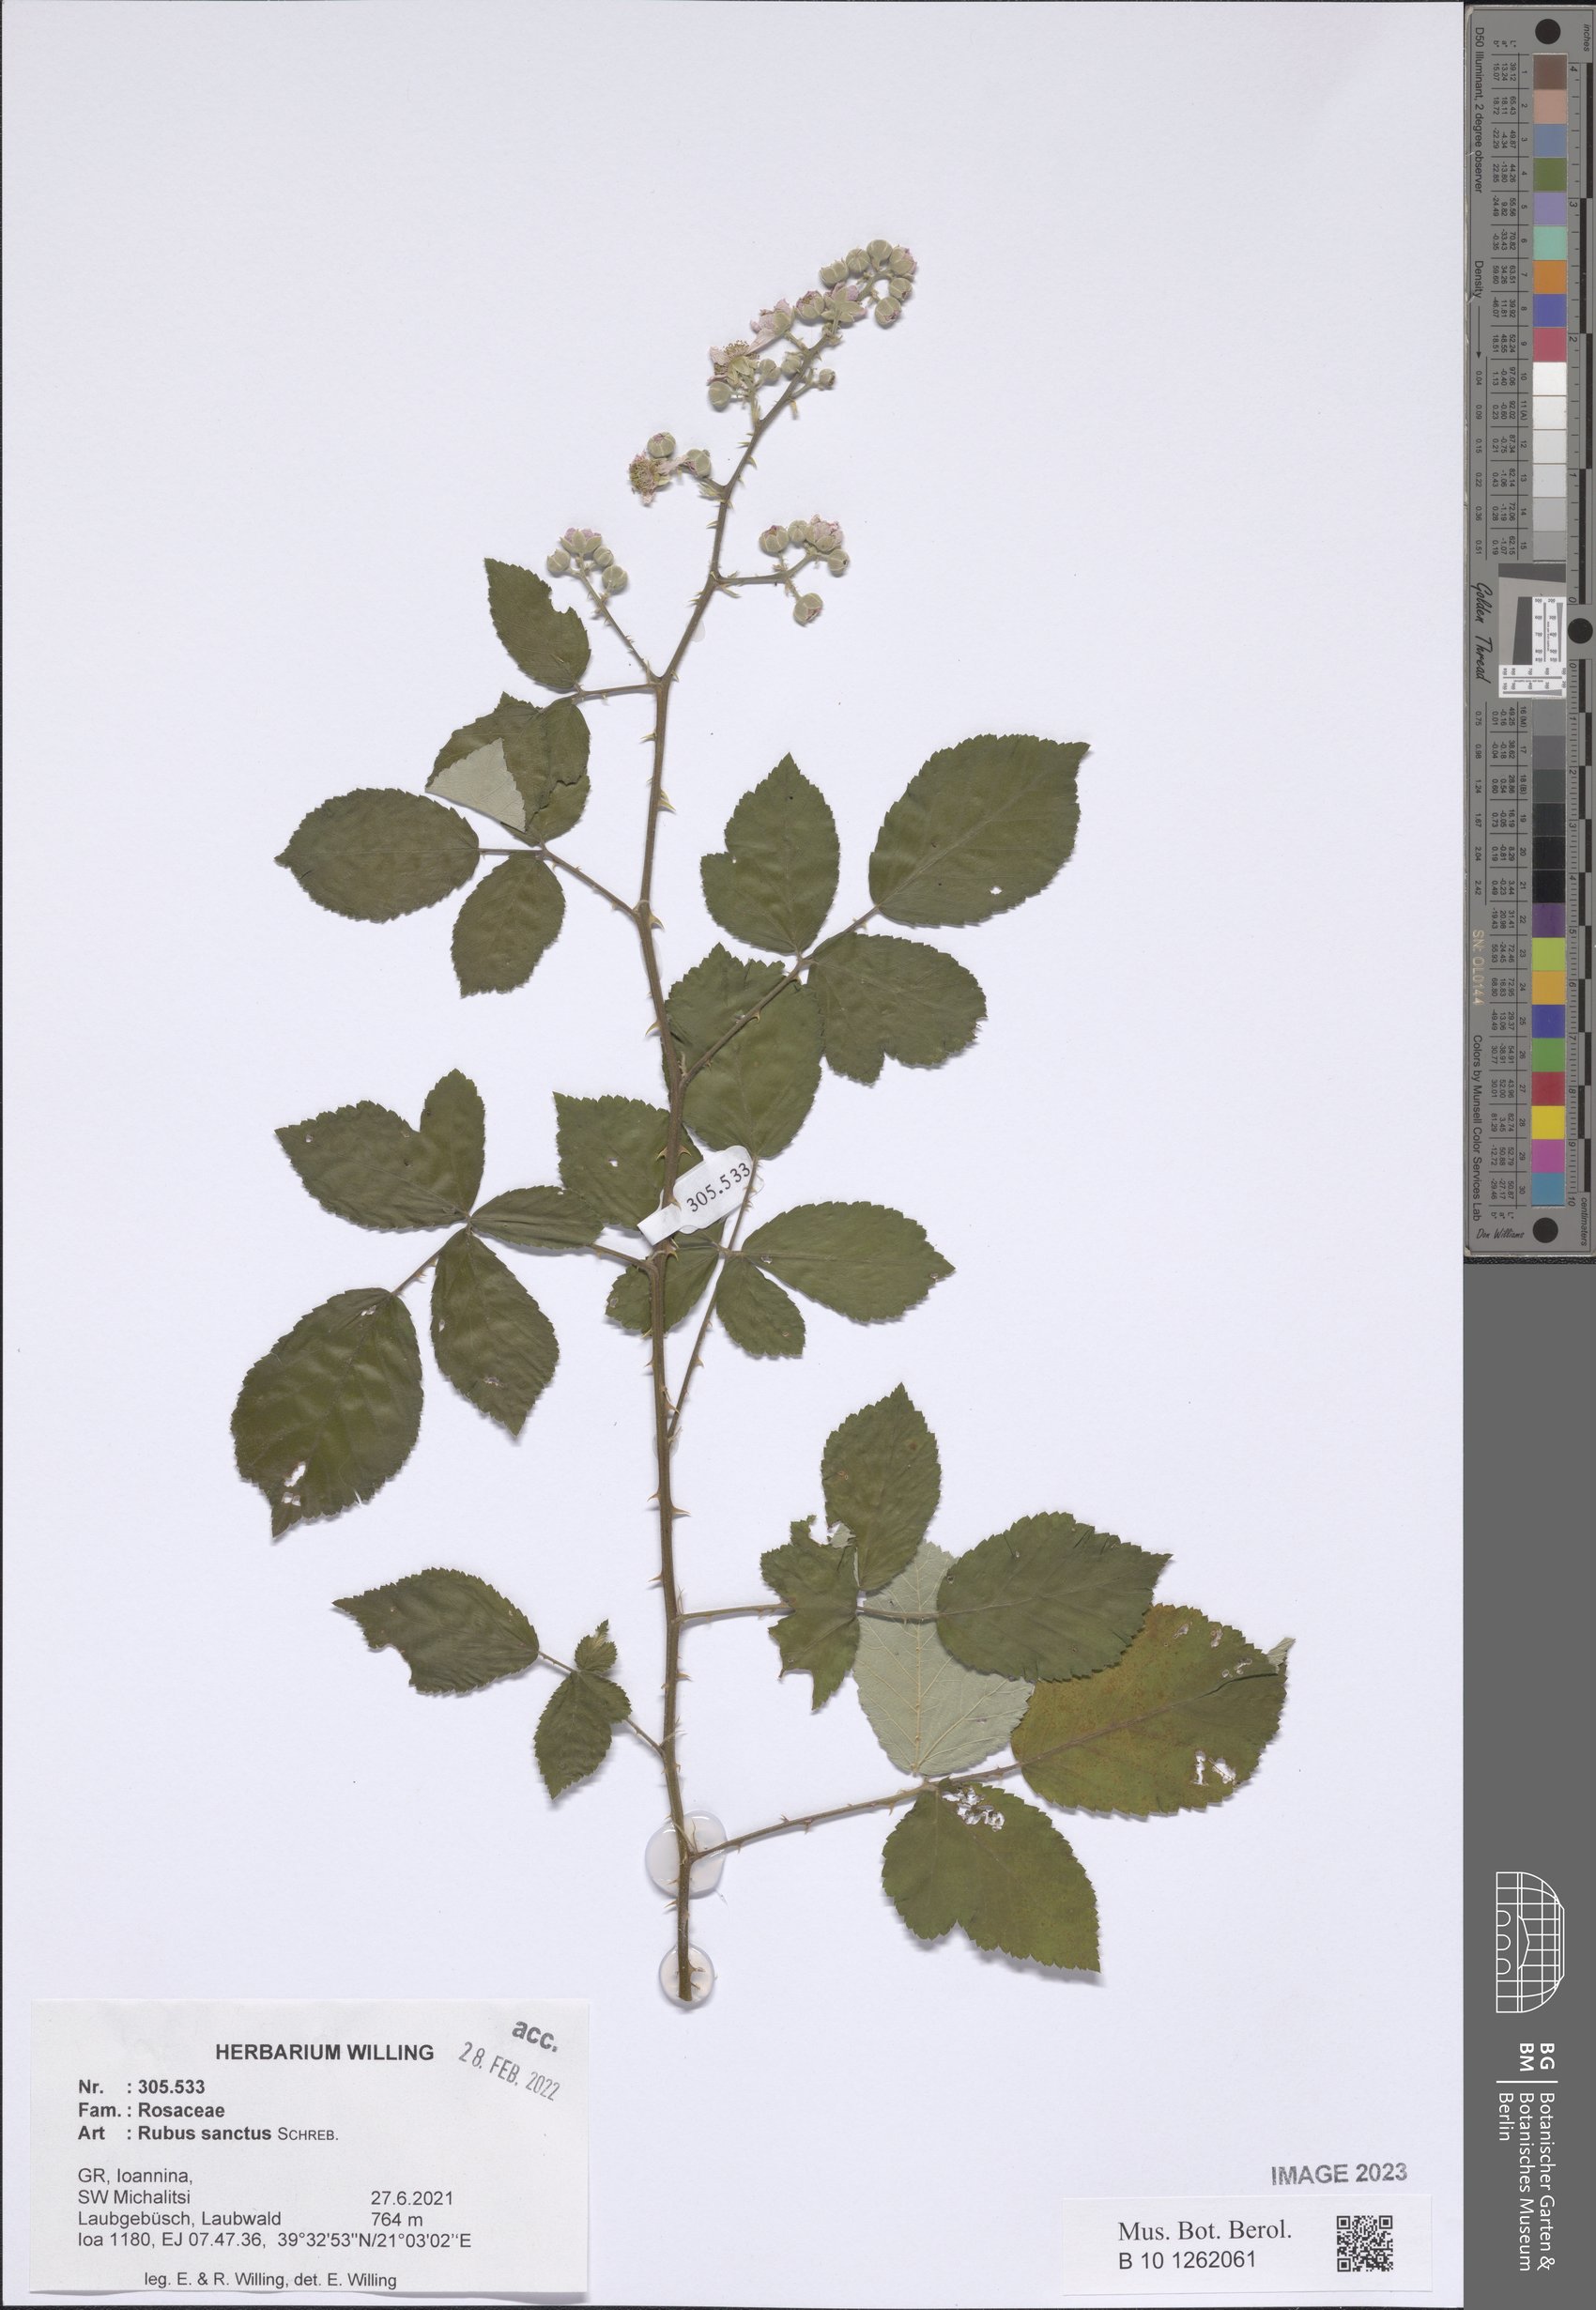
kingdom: Plantae
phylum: Tracheophyta
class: Magnoliopsida
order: Rosales
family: Rosaceae
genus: Rubus
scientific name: Rubus sanctus
